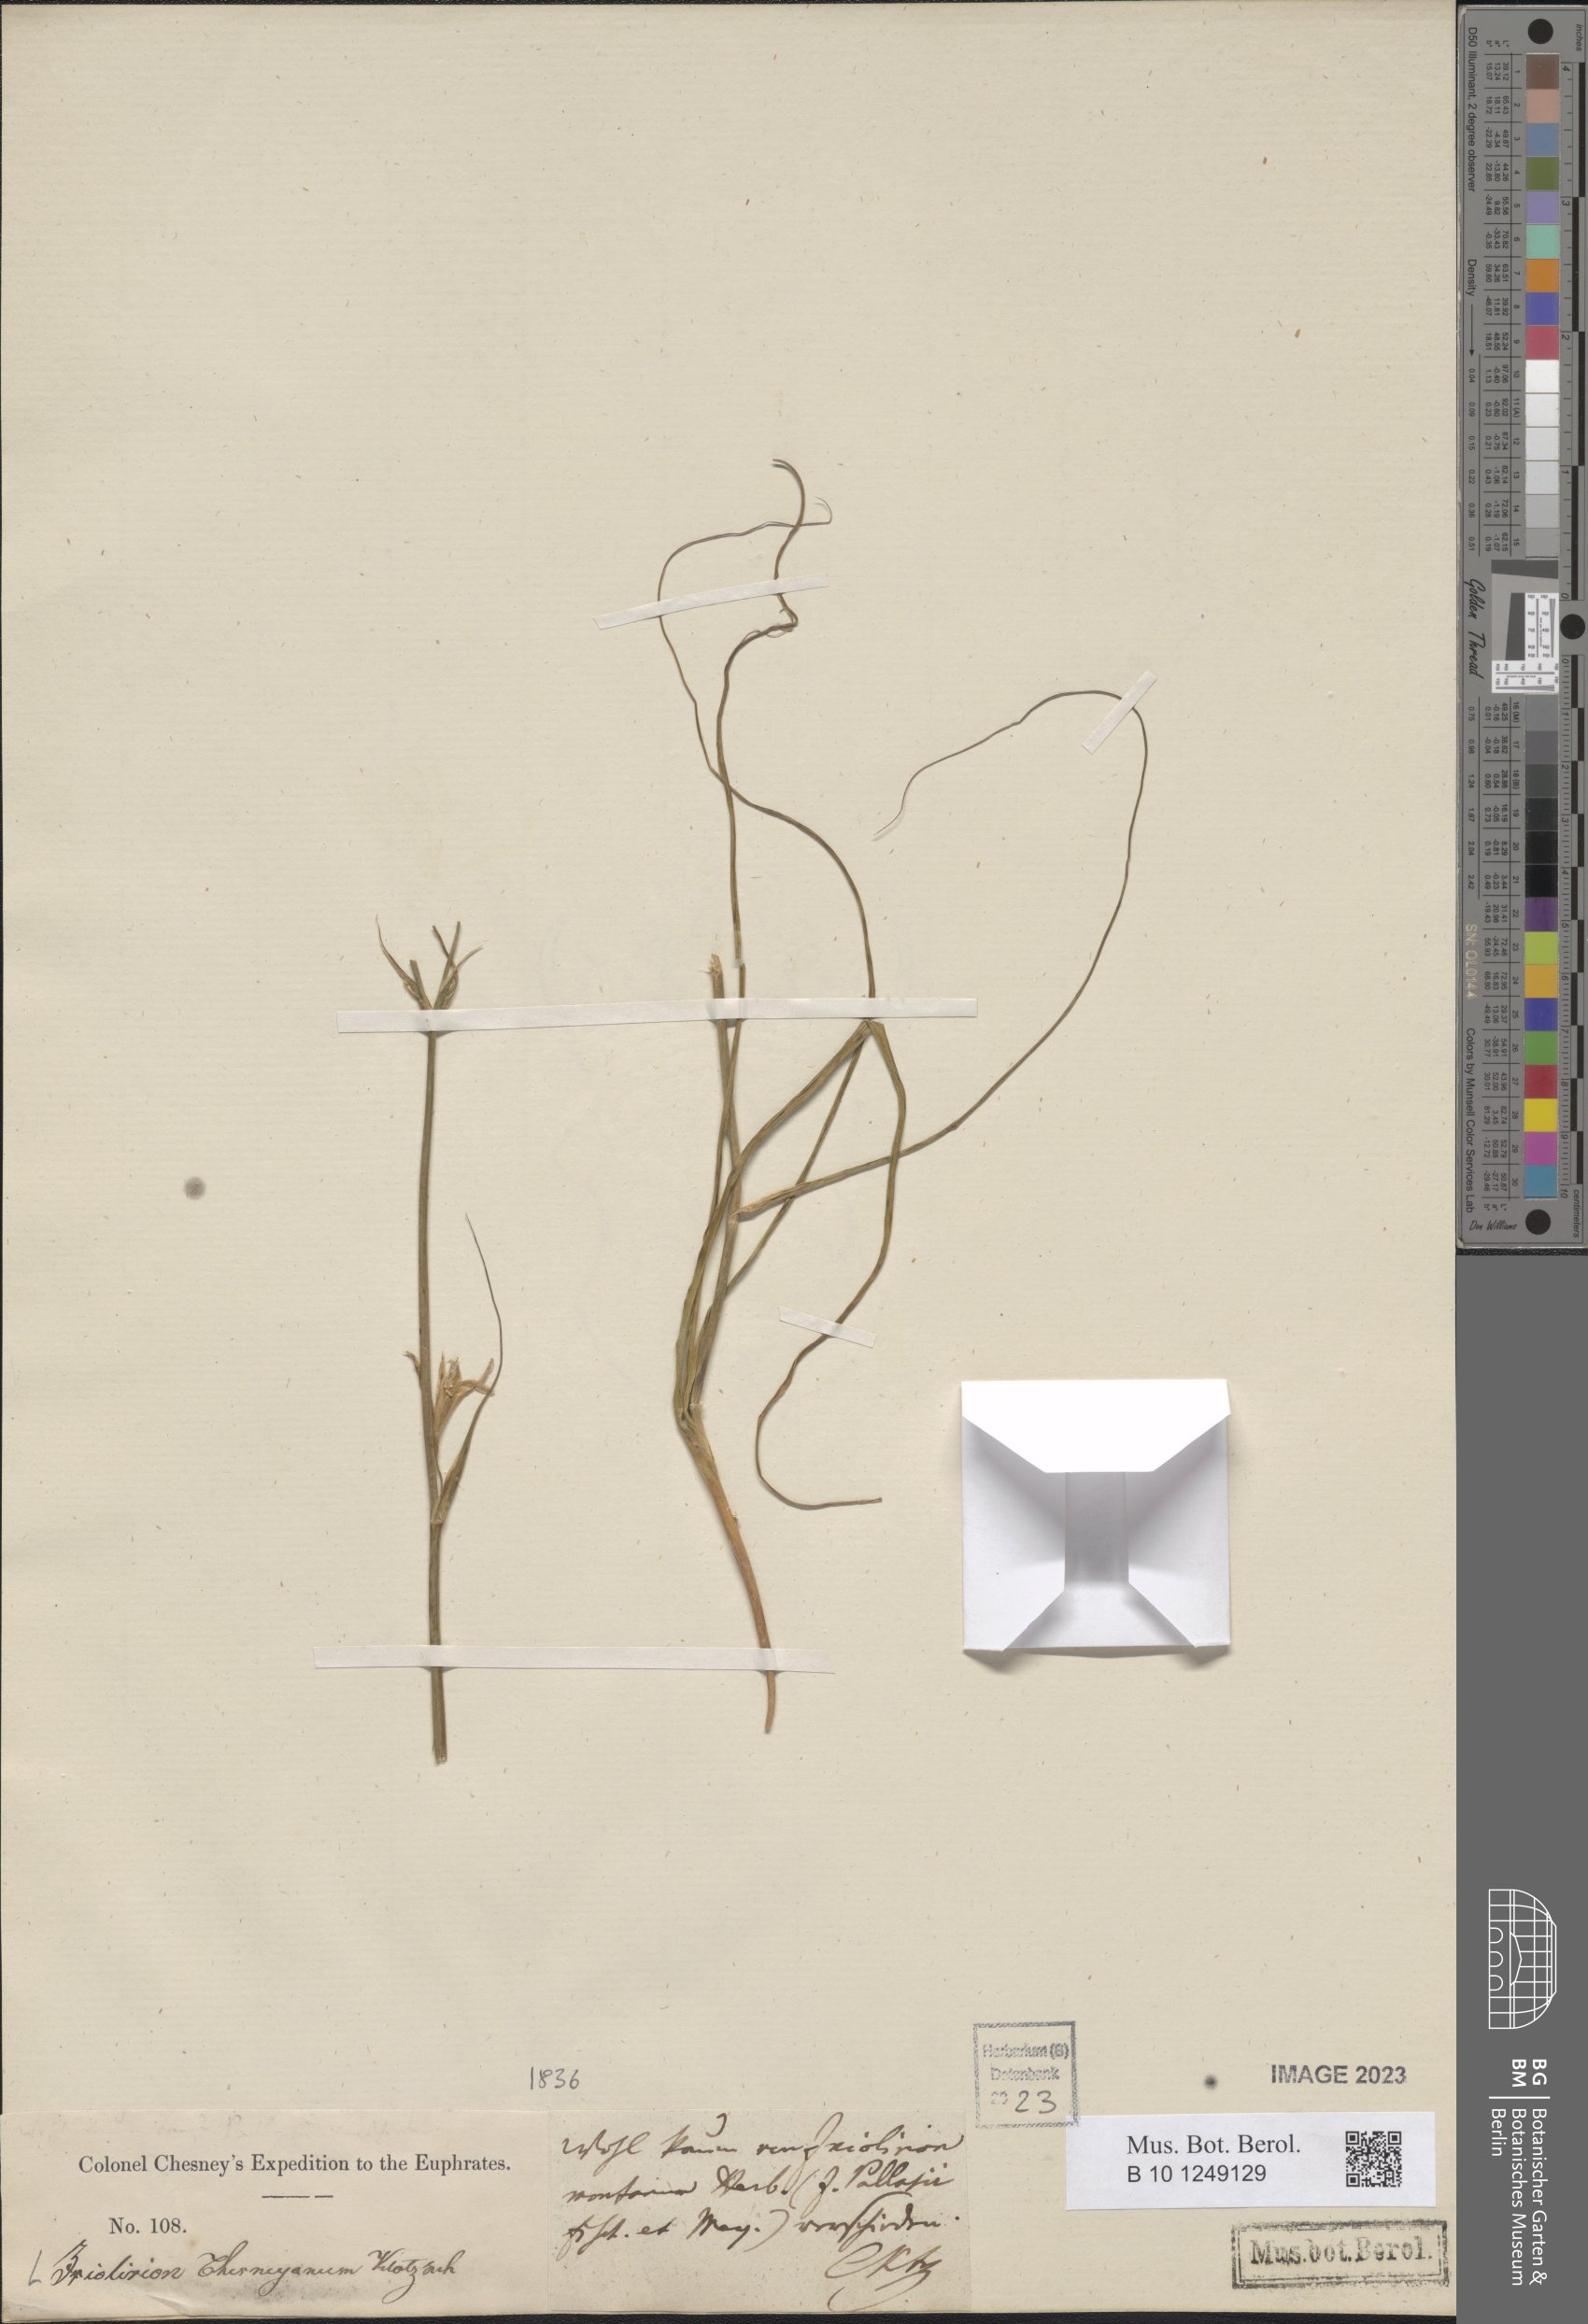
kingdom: Plantae
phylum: Tracheophyta
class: Liliopsida
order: Asparagales
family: Ixioliriaceae
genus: Ixiolirion
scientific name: Ixiolirion
